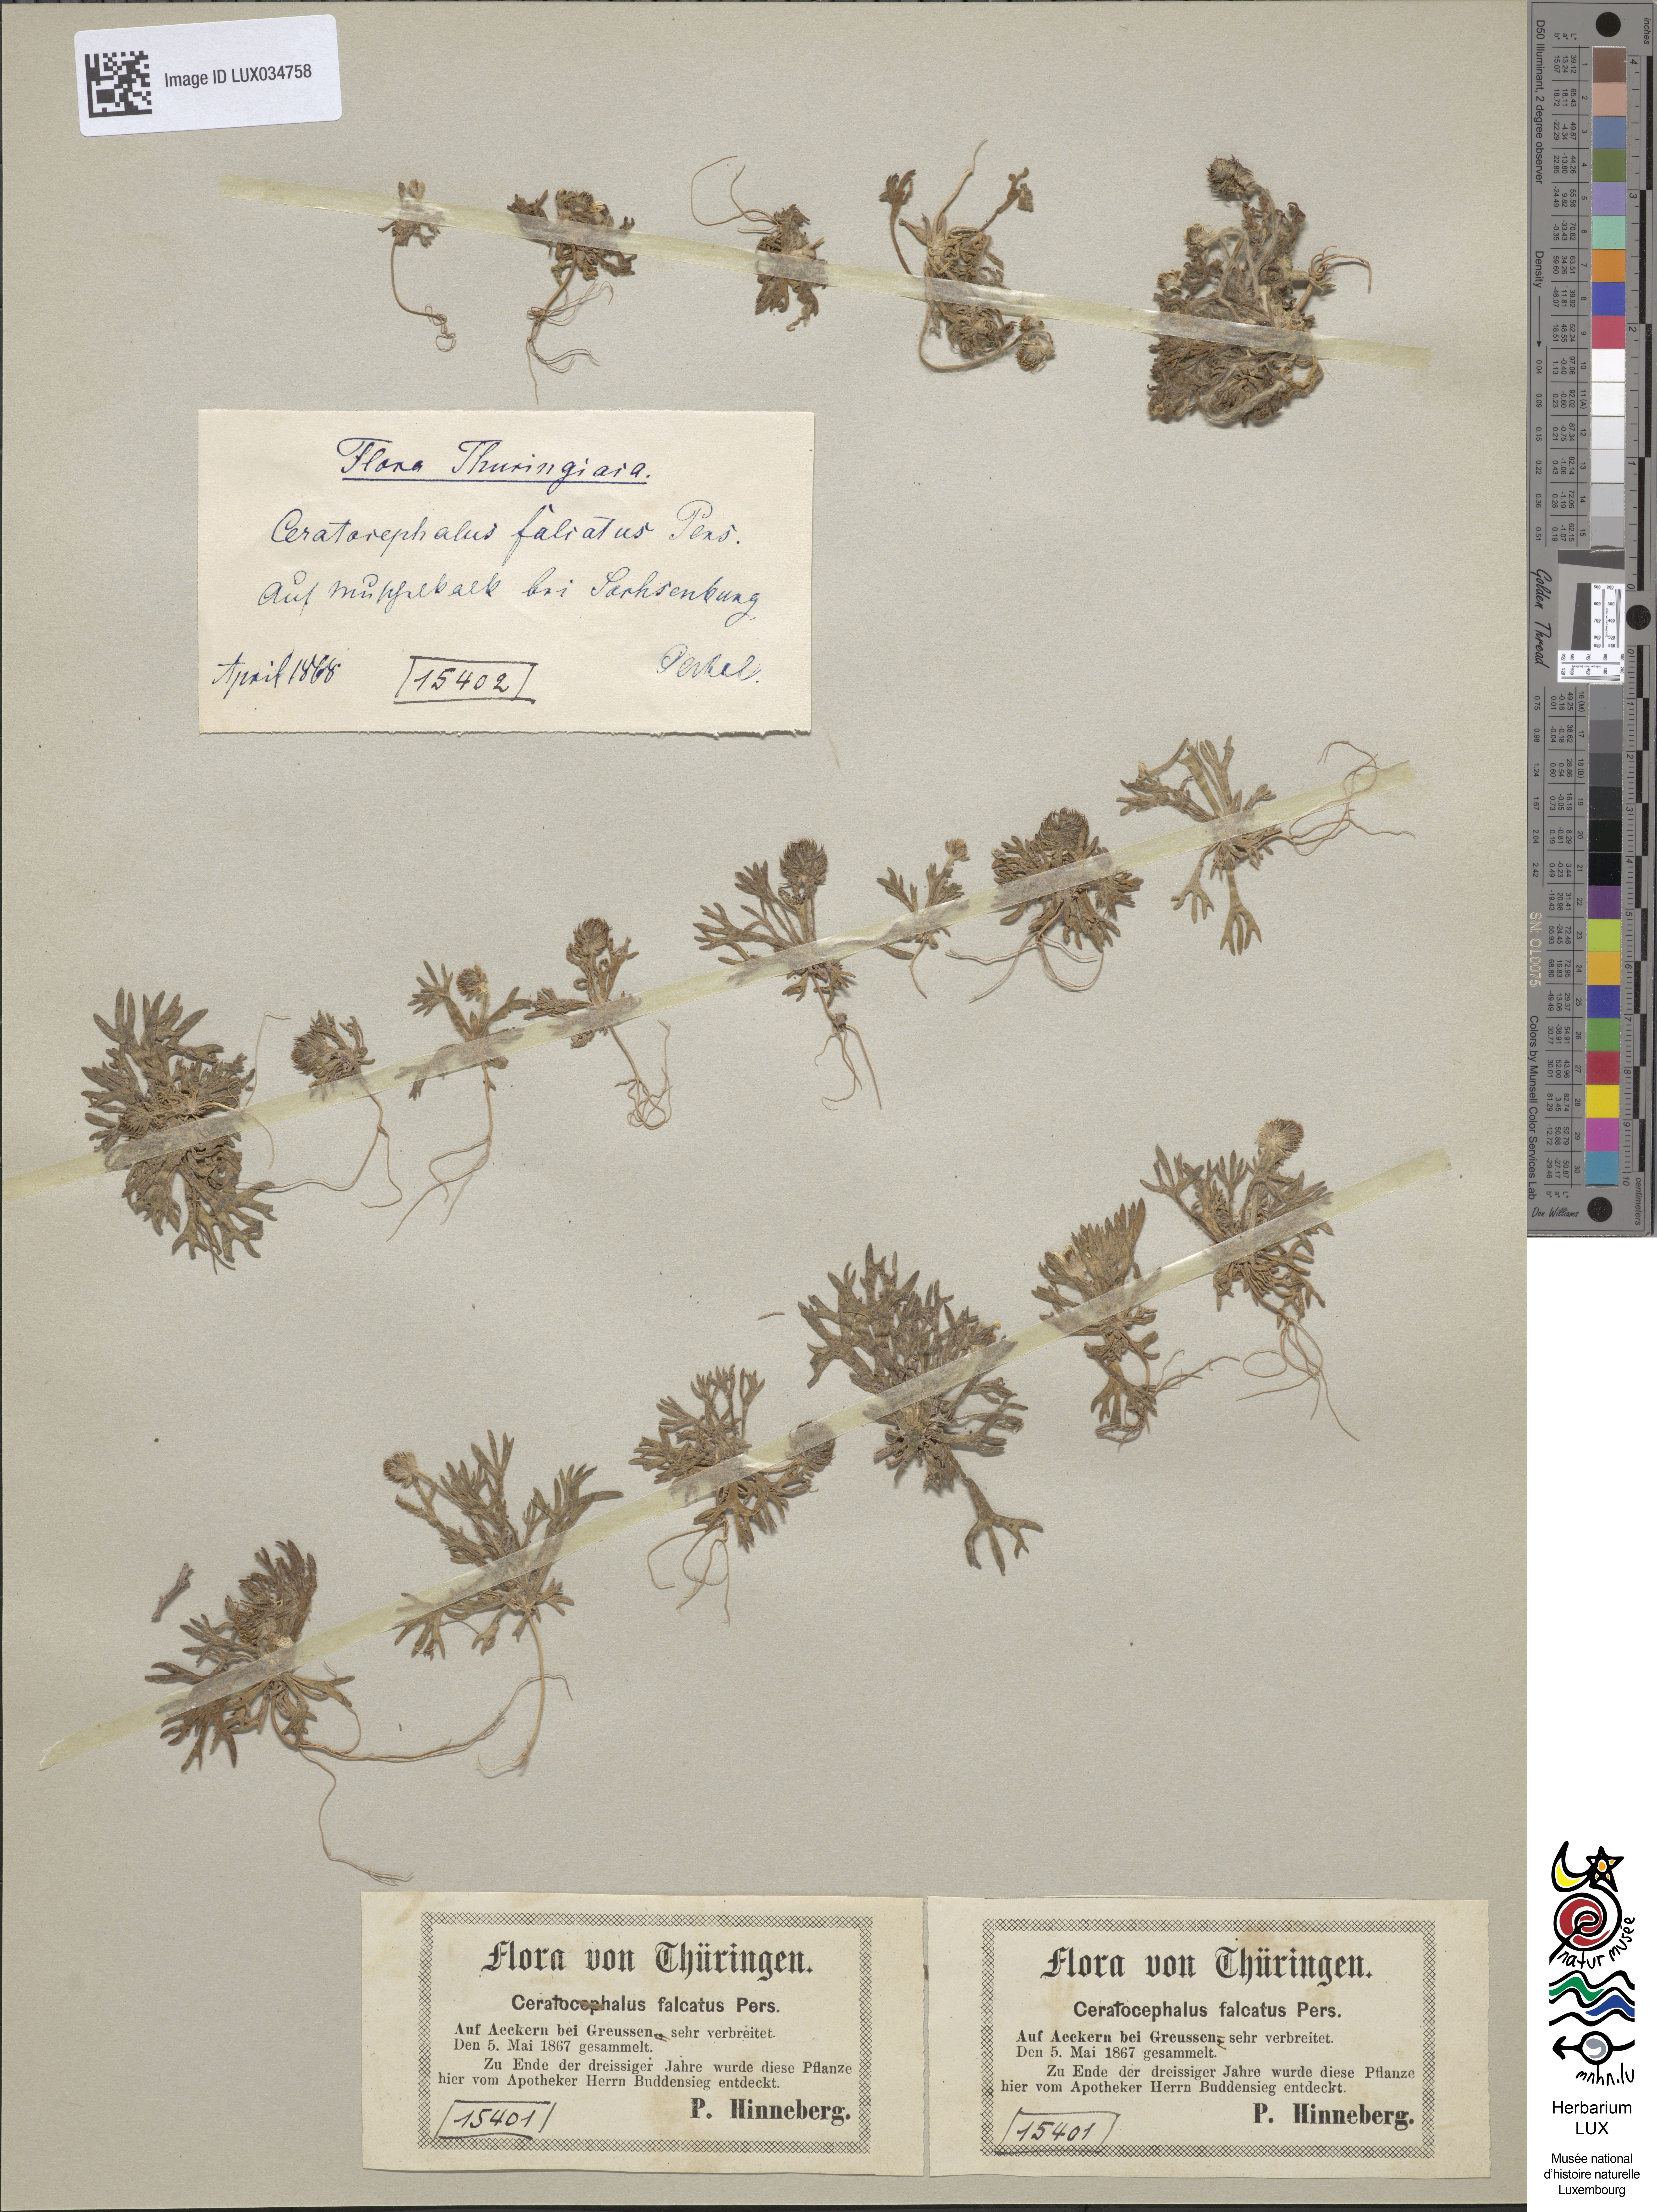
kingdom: Plantae
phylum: Tracheophyta
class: Magnoliopsida
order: Ranunculales
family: Ranunculaceae
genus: Ceratocephala
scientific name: Ceratocephala falcata
